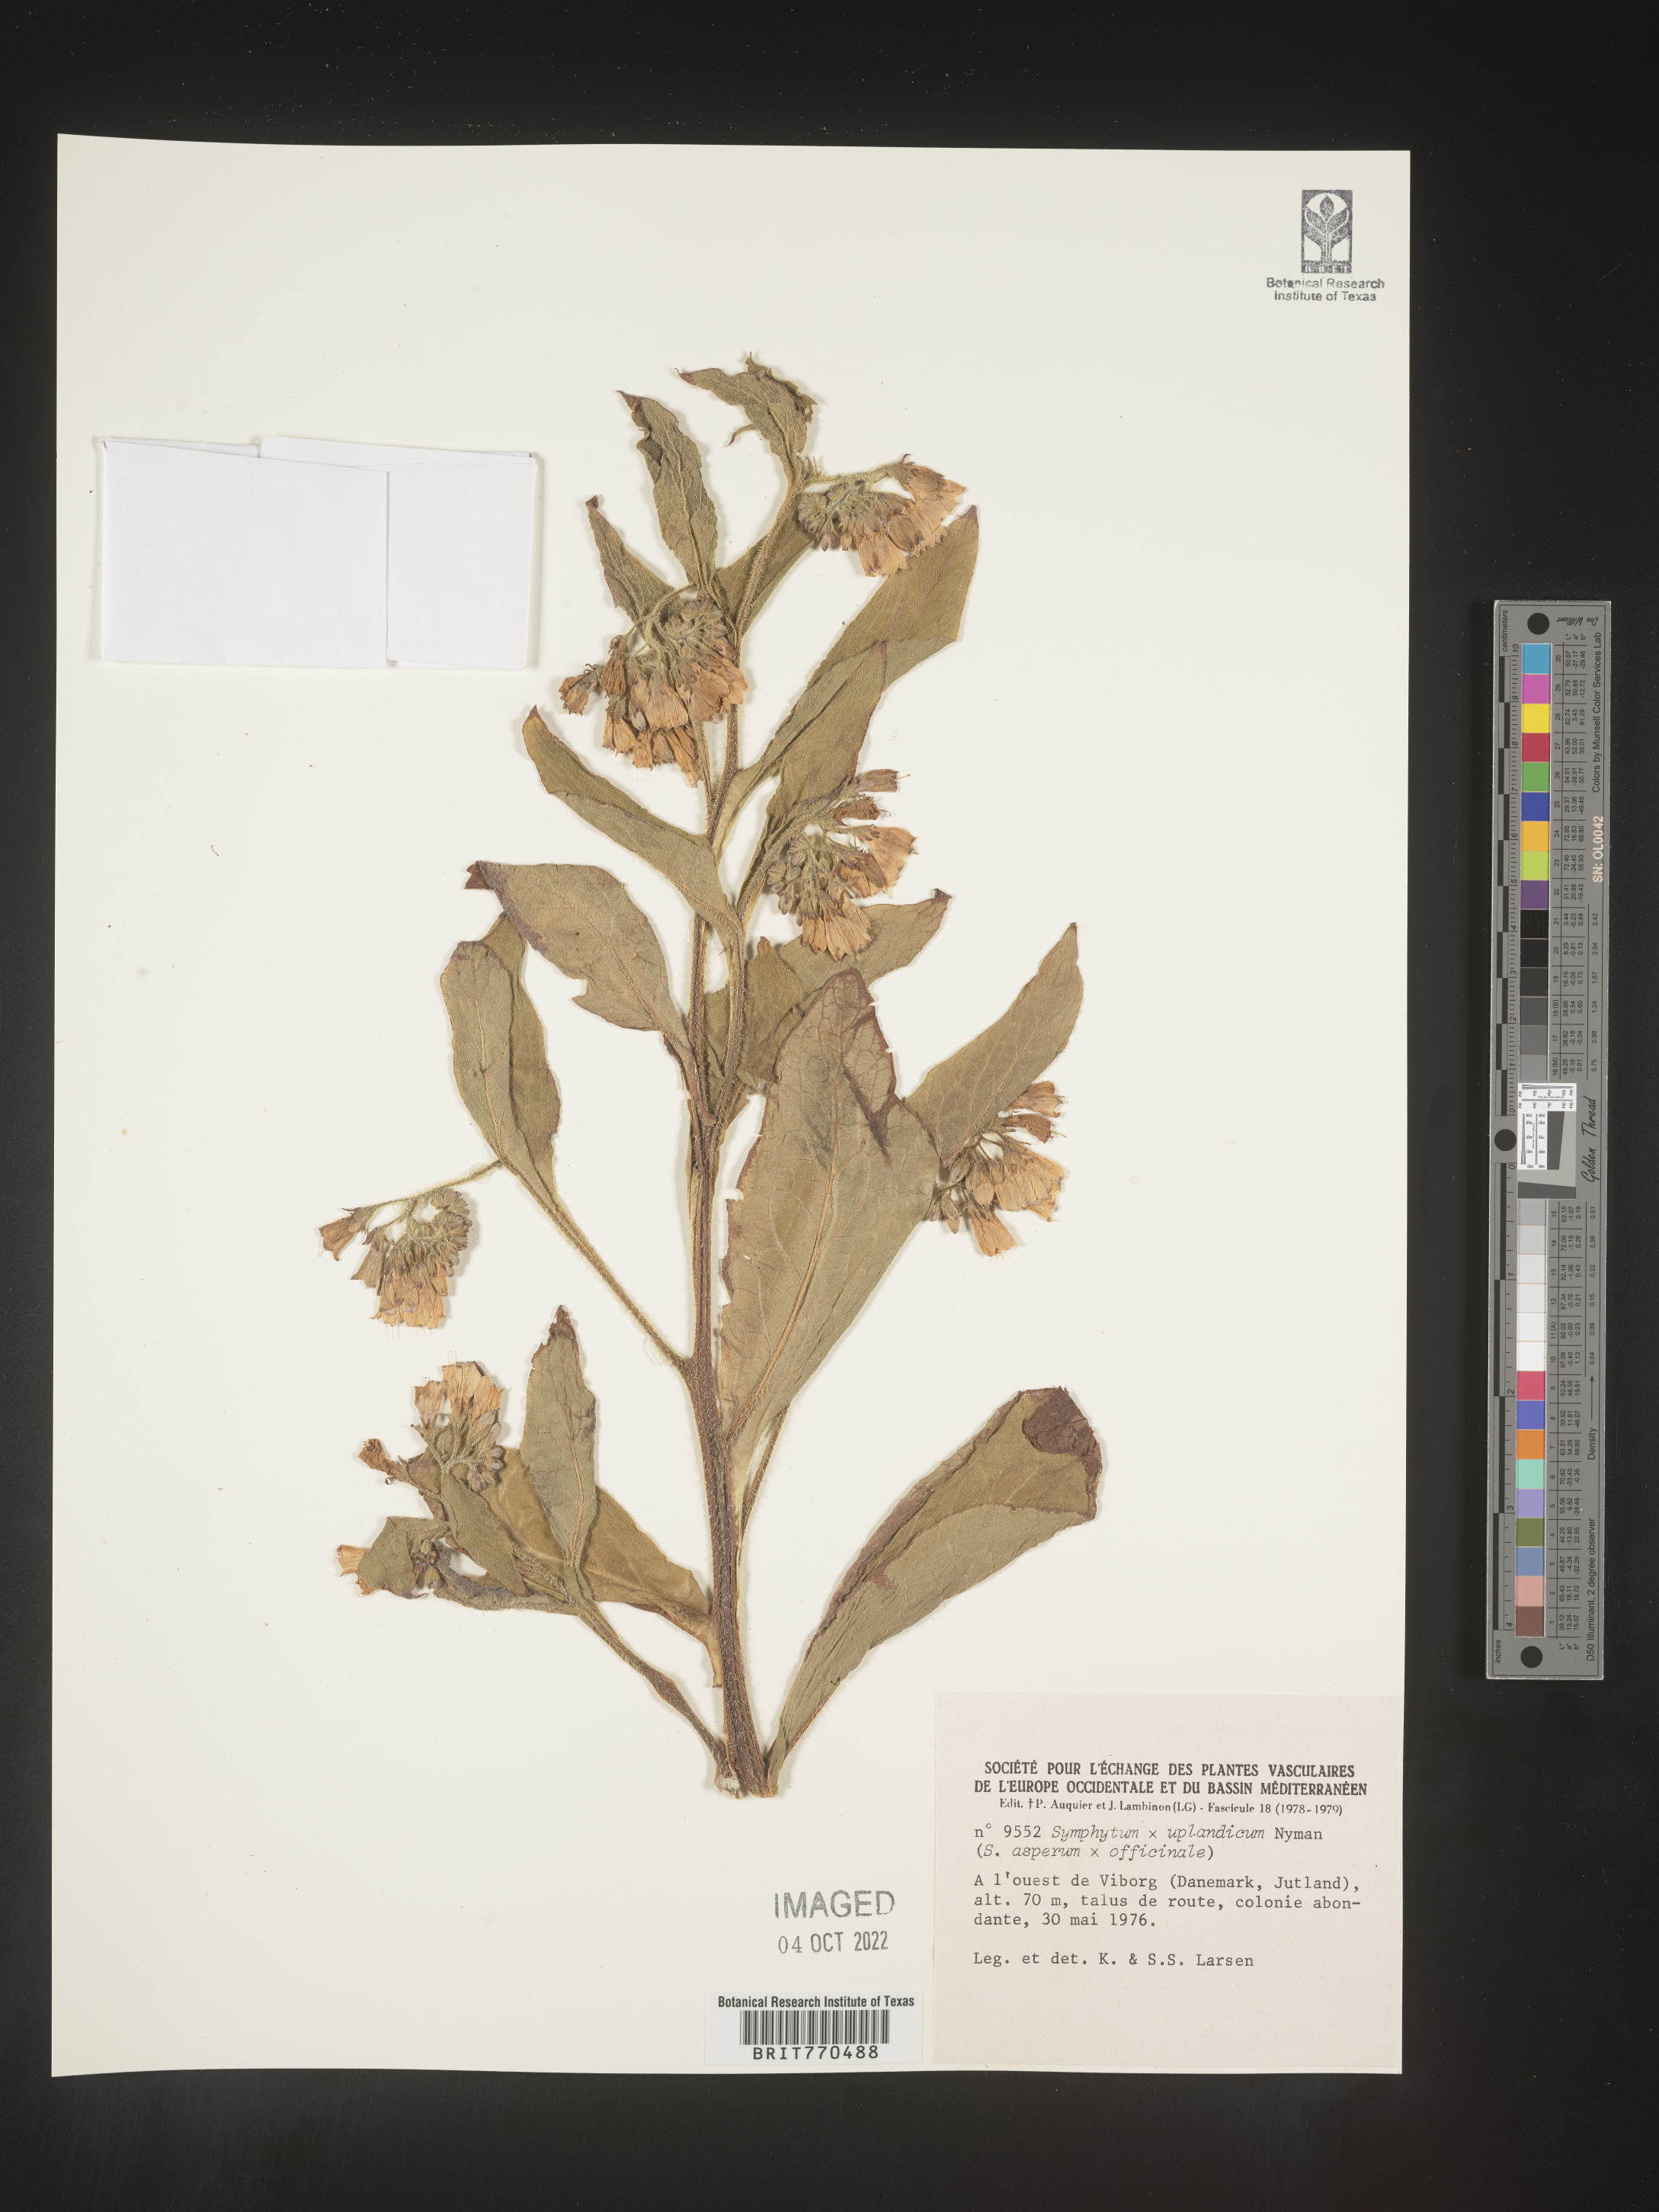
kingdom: Plantae
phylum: Tracheophyta
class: Magnoliopsida
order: Boraginales
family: Boraginaceae
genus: Symphytum
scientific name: Symphytum
